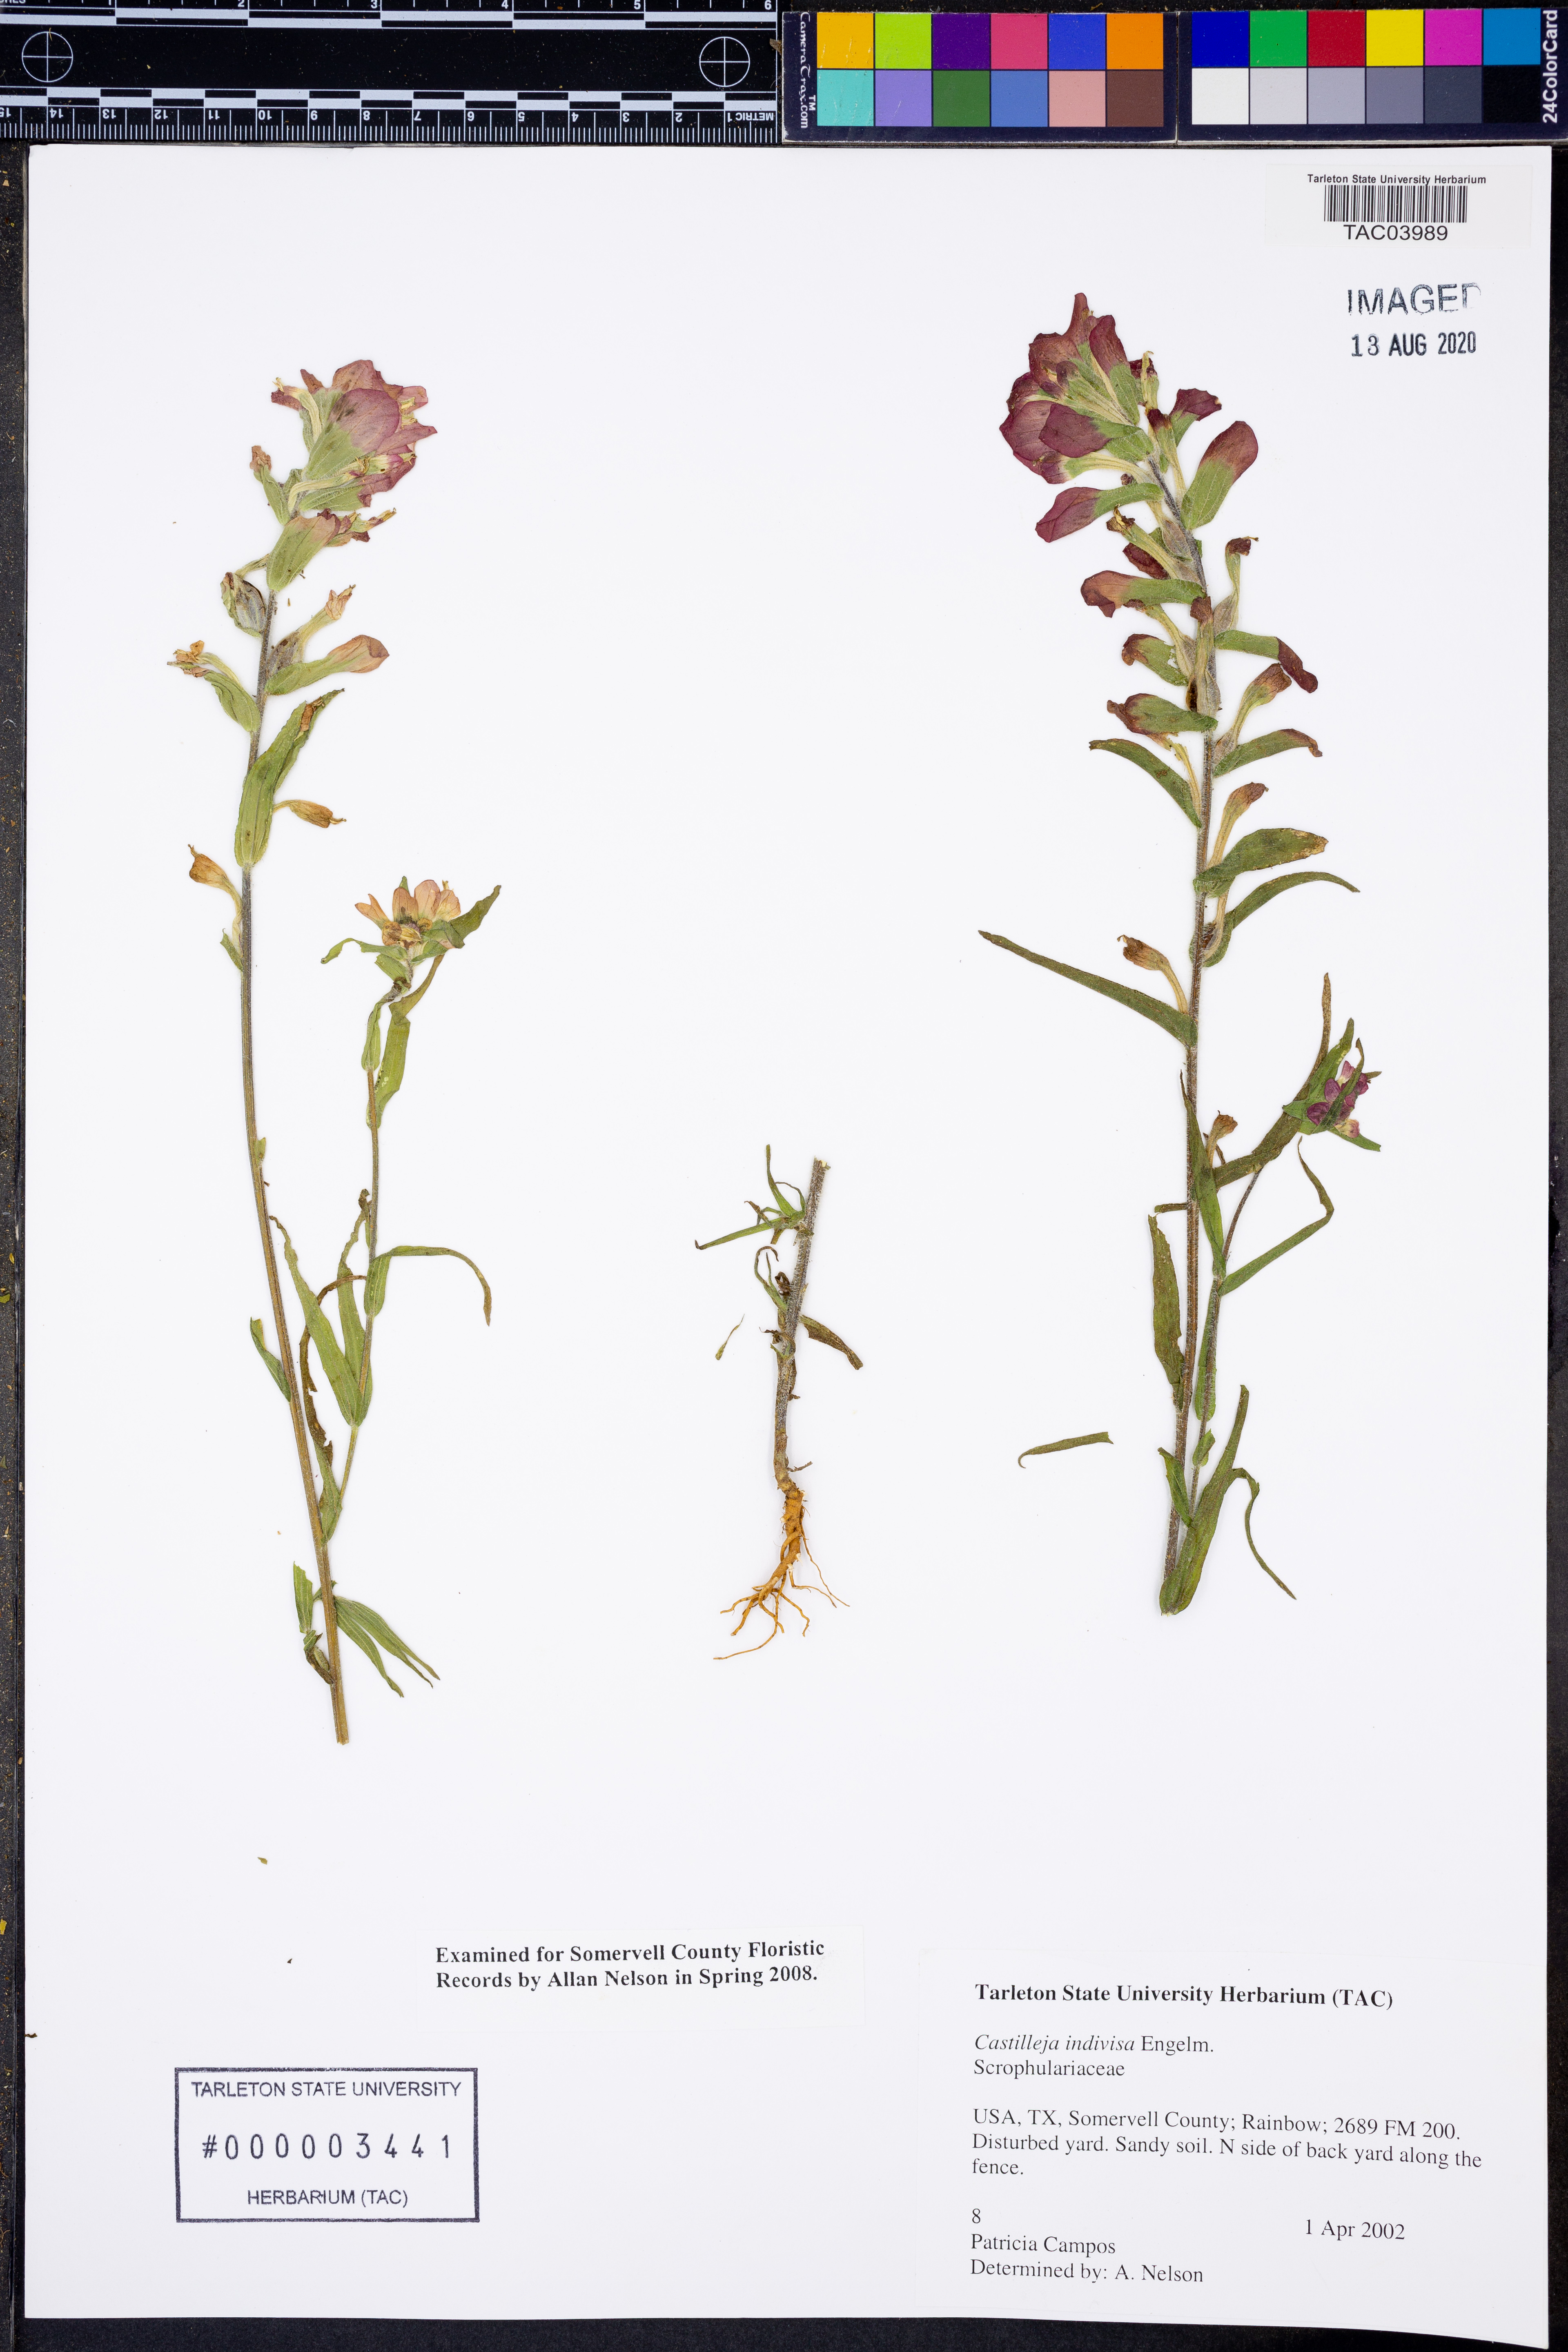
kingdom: Plantae
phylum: Tracheophyta
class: Magnoliopsida
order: Lamiales
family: Orobanchaceae
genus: Castilleja
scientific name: Castilleja indivisa
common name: Texas paintbrush
